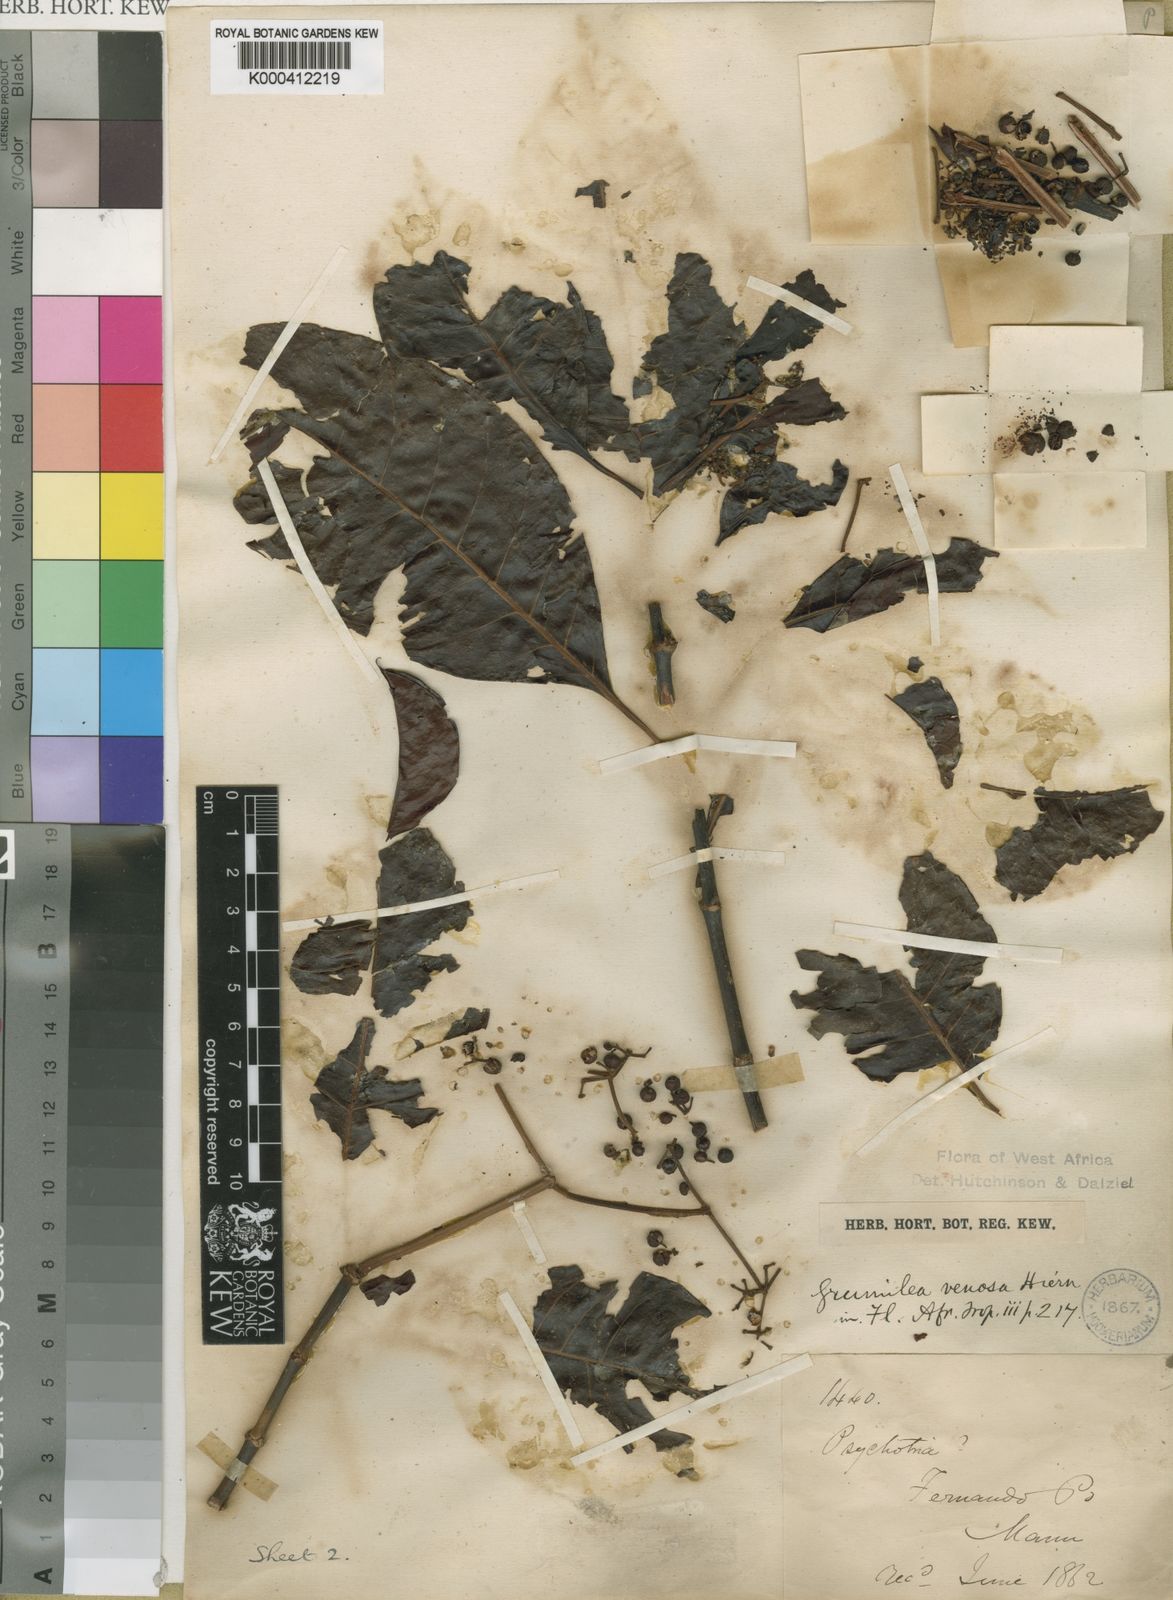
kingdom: Plantae
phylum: Tracheophyta
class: Magnoliopsida
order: Gentianales
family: Rubiaceae
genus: Psychotria
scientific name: Psychotria venosa
